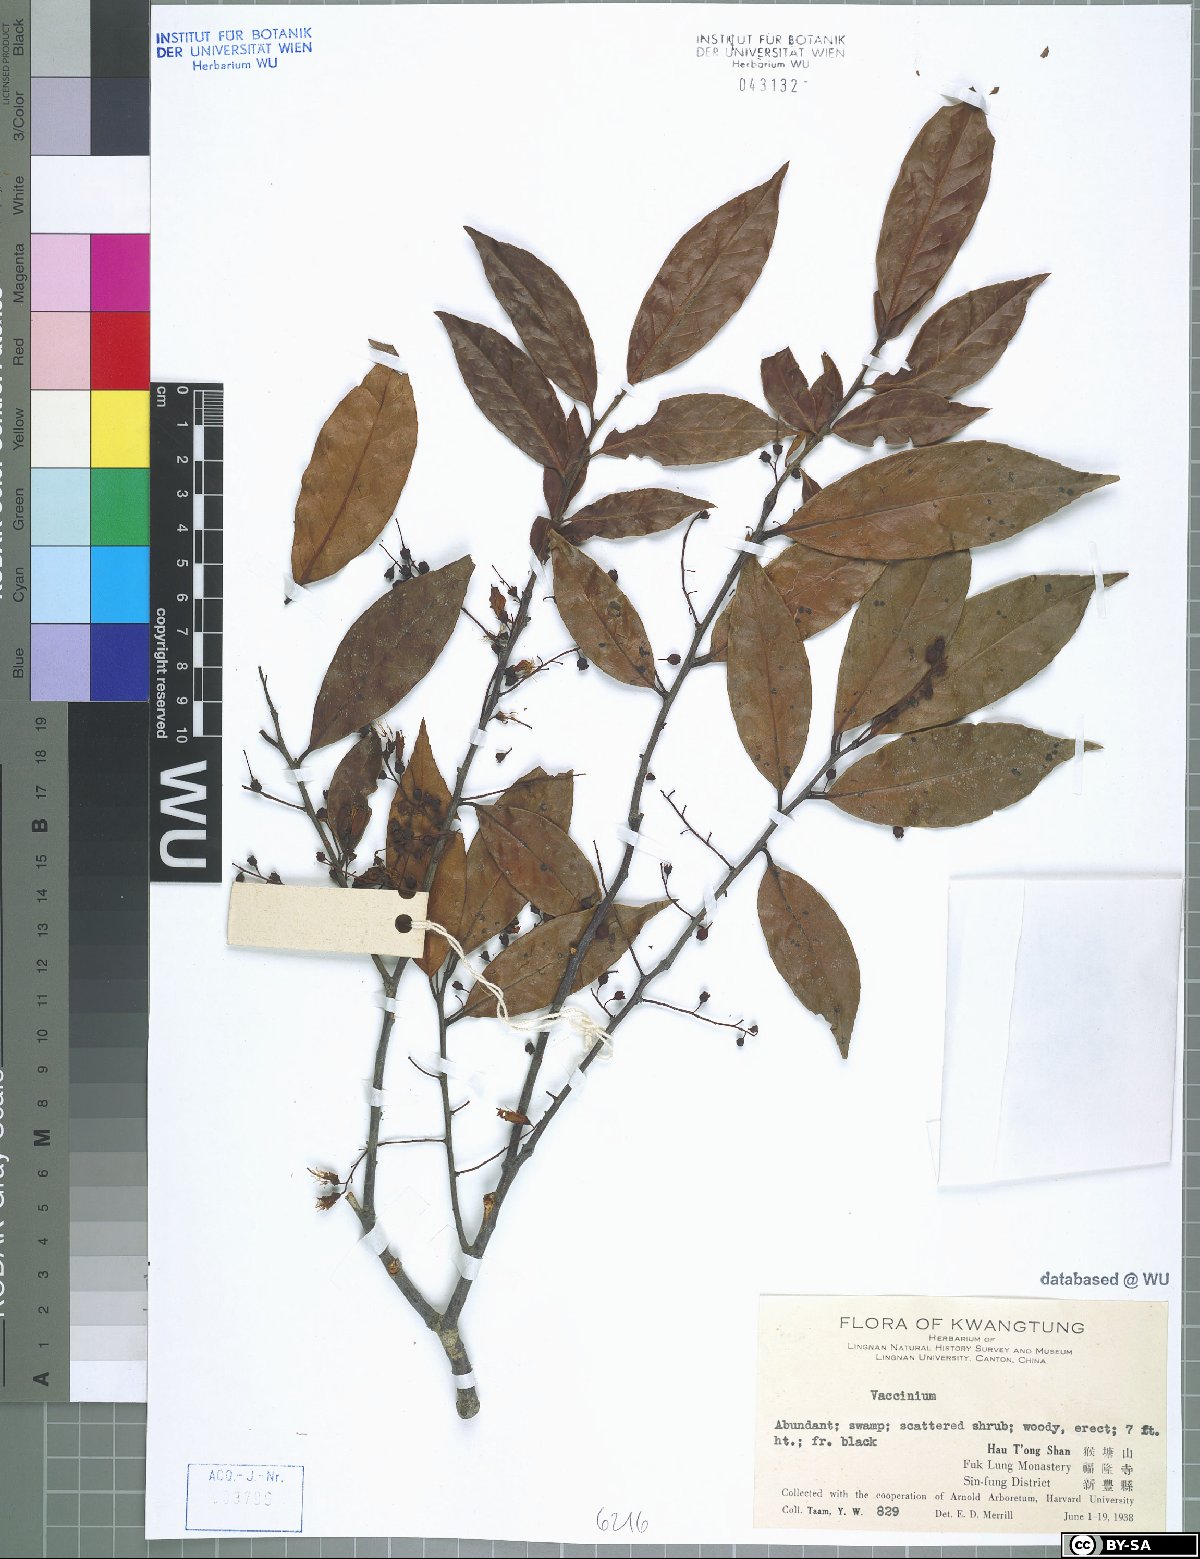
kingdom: Plantae
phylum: Tracheophyta
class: Magnoliopsida
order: Ericales
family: Ericaceae
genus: Vaccinium
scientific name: Vaccinium
